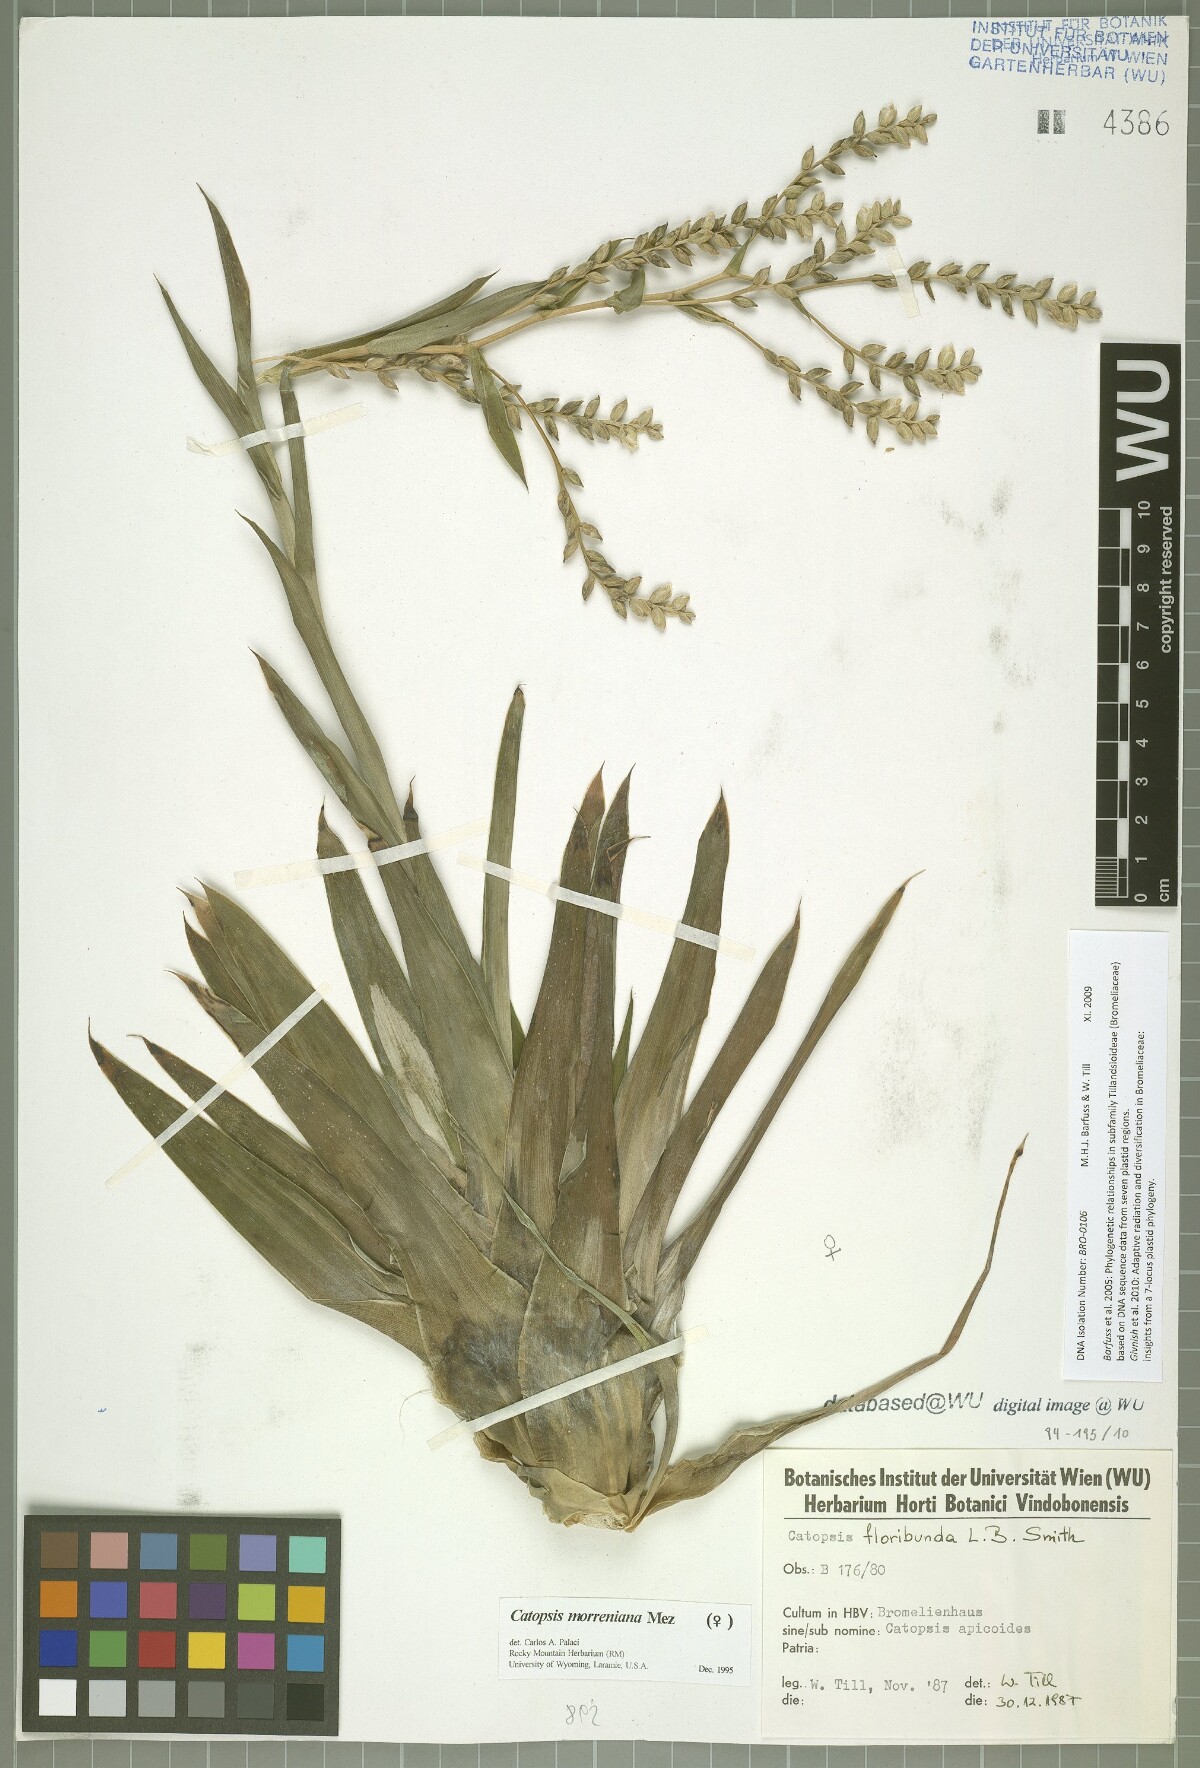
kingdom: Plantae
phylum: Tracheophyta
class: Liliopsida
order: Poales
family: Bromeliaceae
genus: Catopsis
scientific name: Catopsis morreniana
